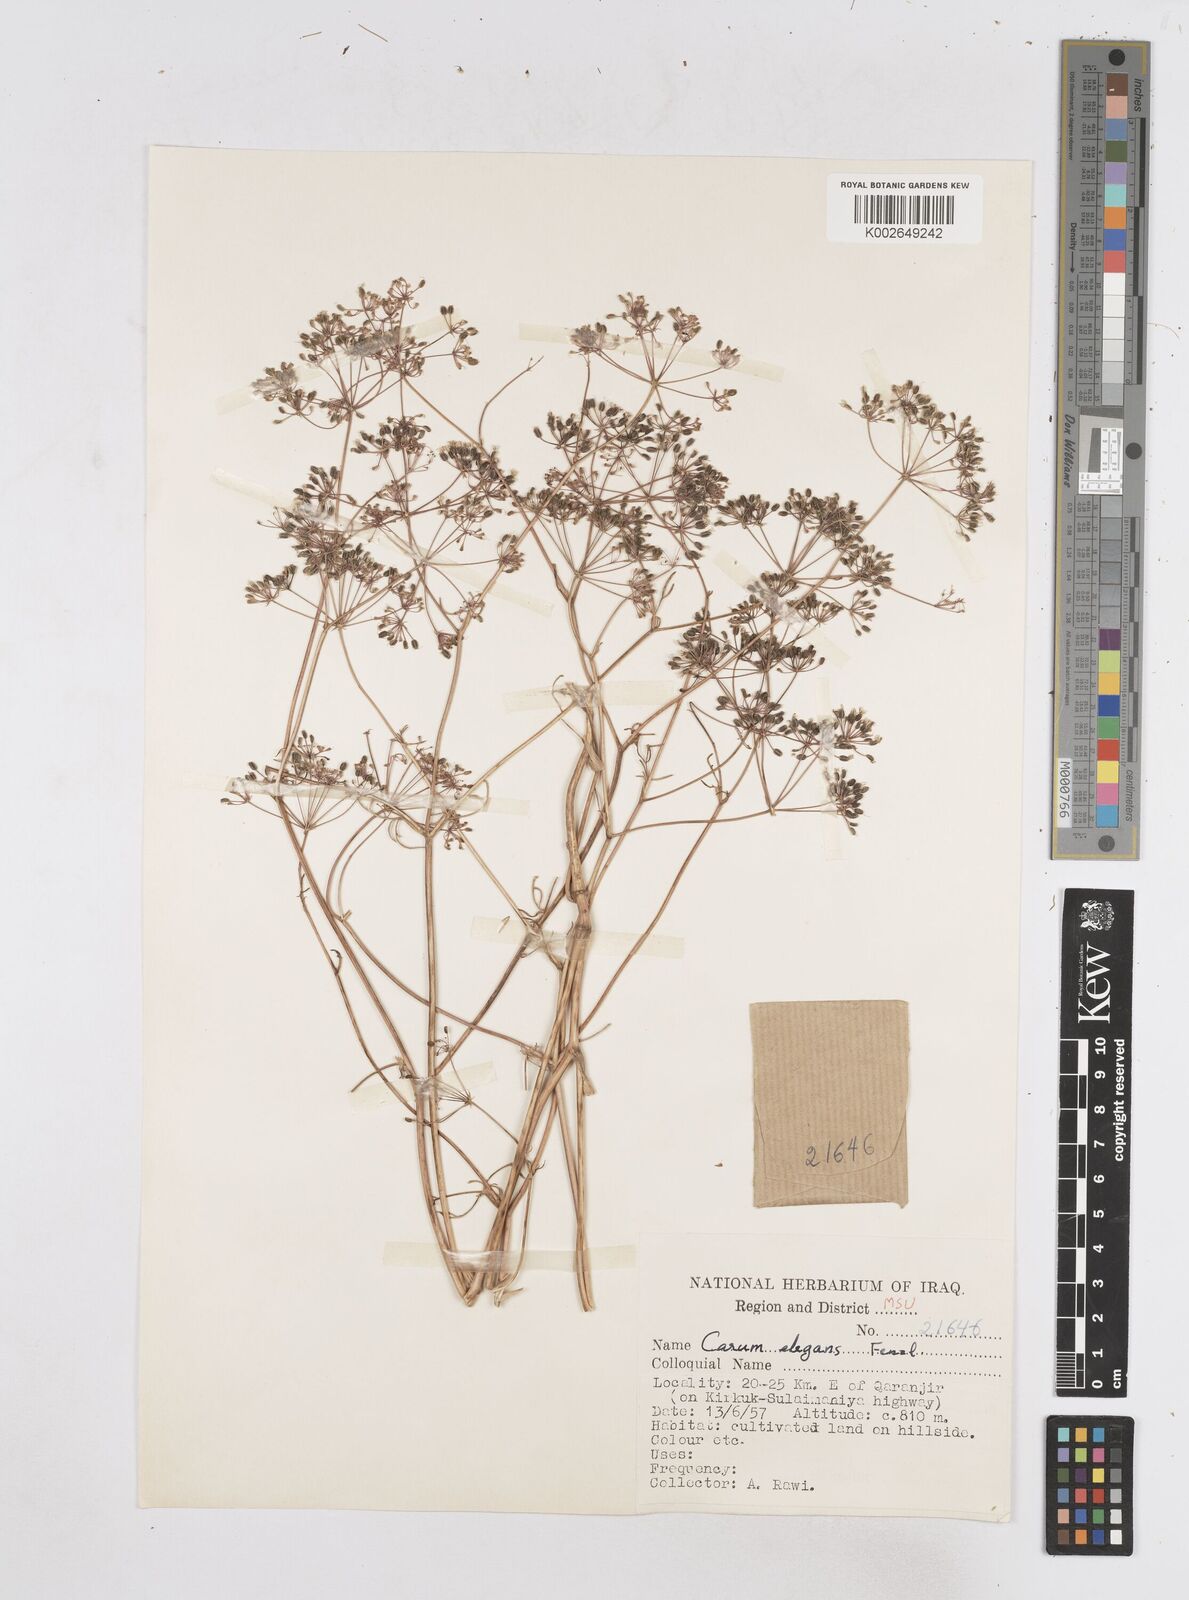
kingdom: Plantae
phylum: Tracheophyta
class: Magnoliopsida
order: Apiales
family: Apiaceae
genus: Bunium
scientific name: Bunium paucifolium
